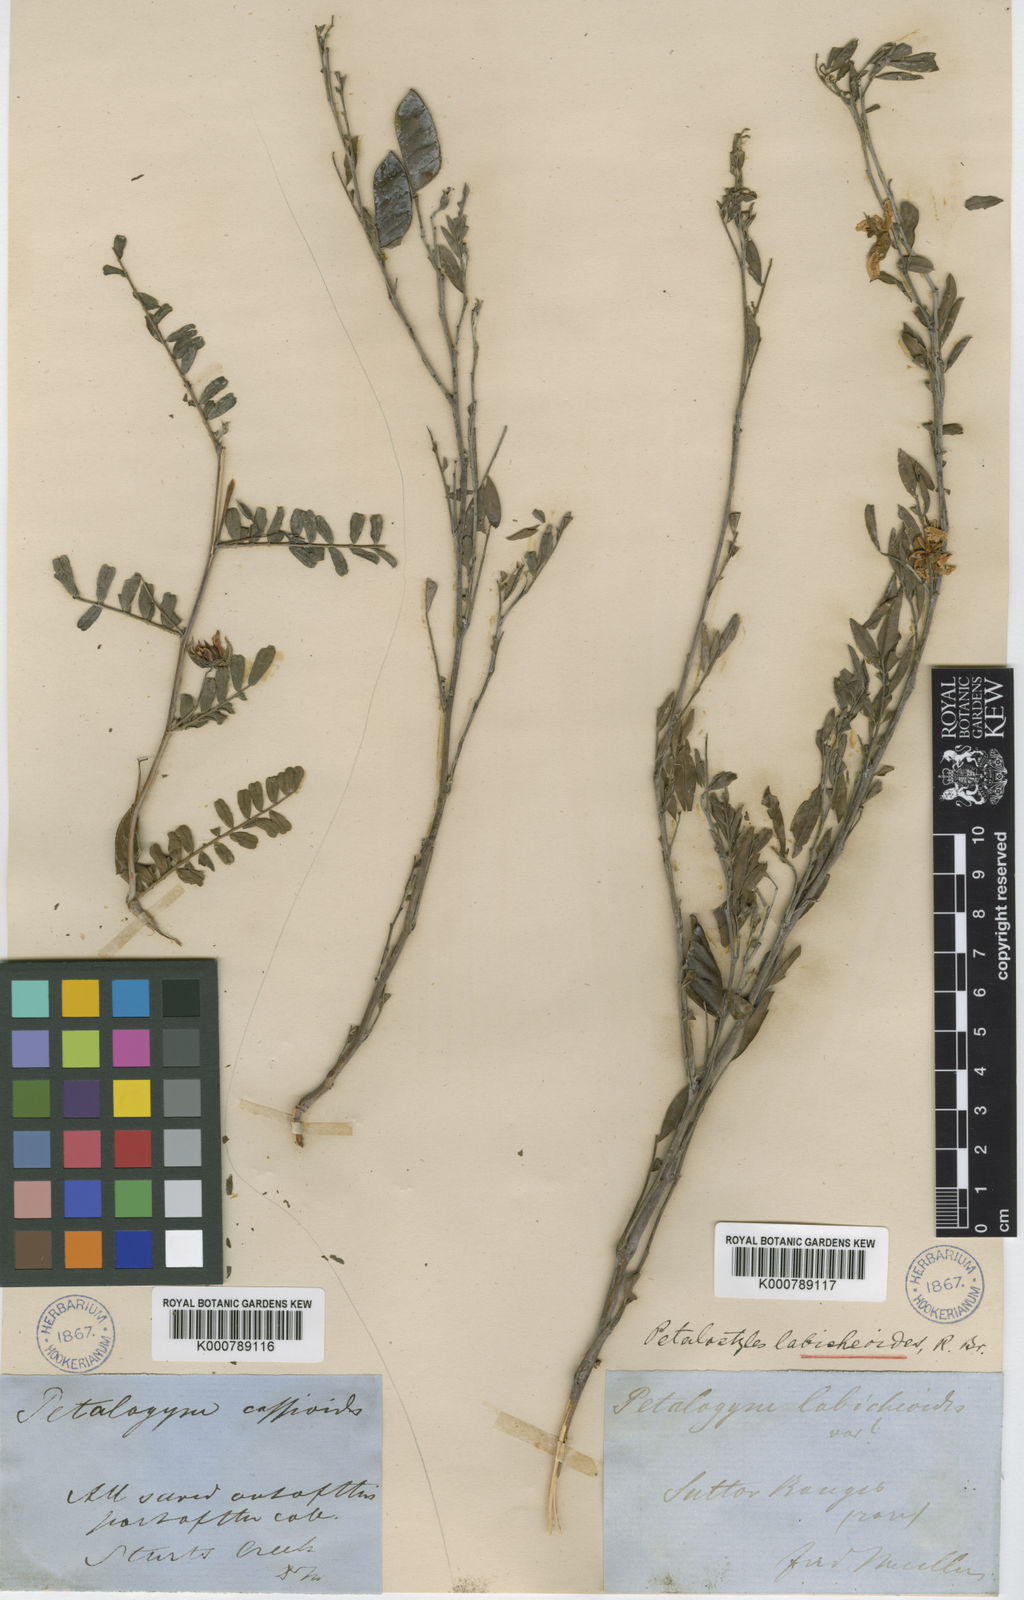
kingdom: Plantae
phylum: Tracheophyta
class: Magnoliopsida
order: Fabales
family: Fabaceae
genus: Petalostylis
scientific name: Petalostylis cassioides
